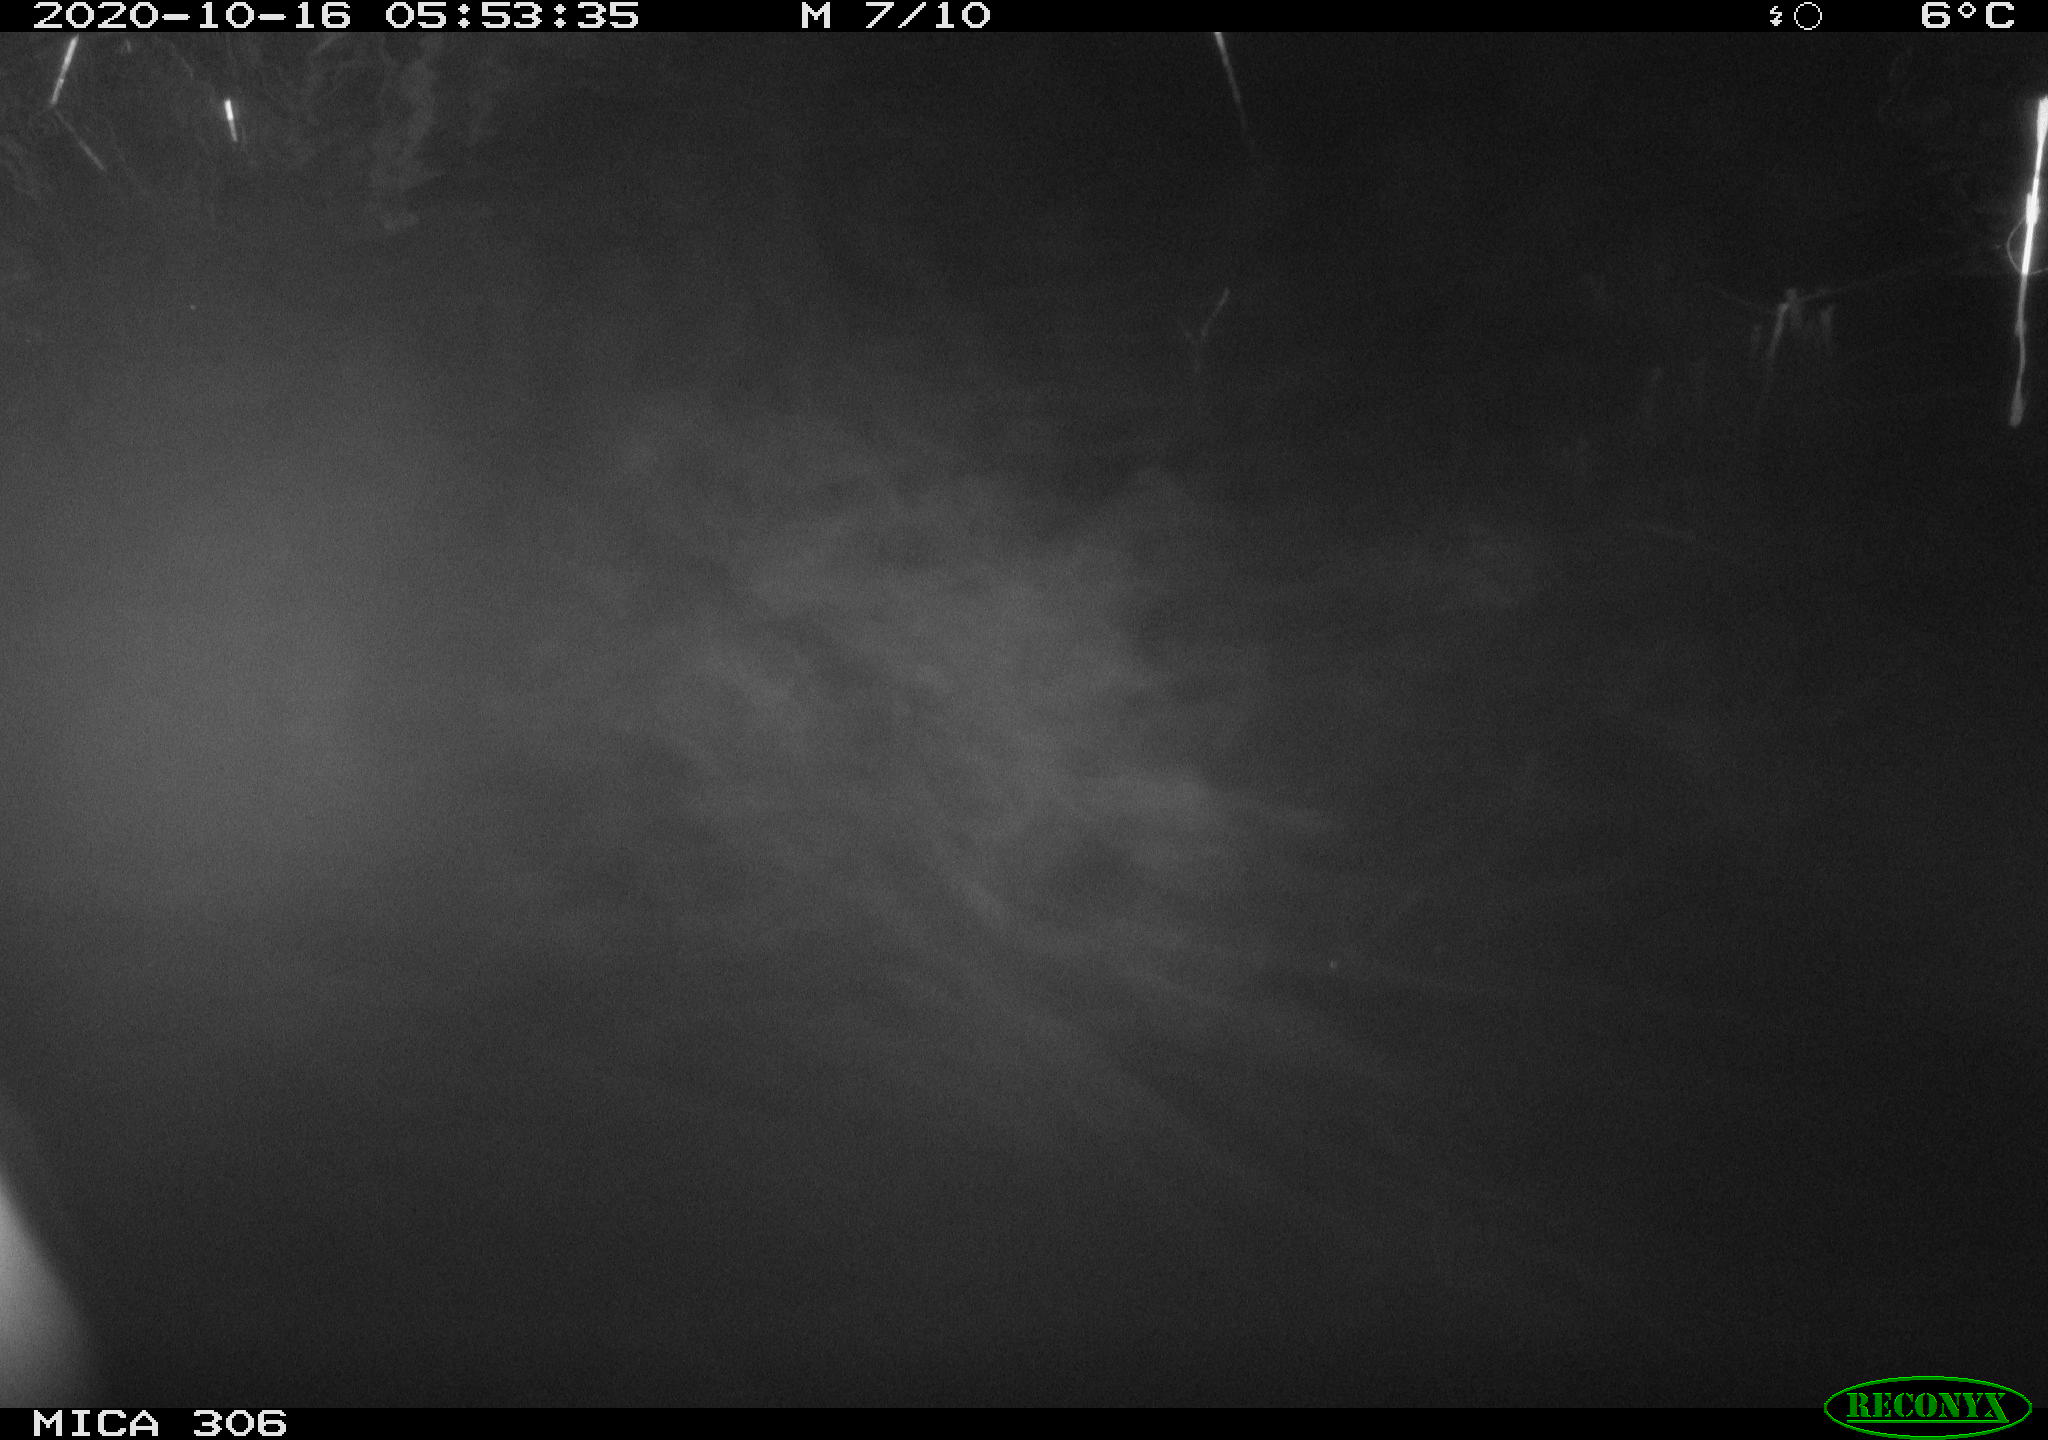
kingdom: Animalia
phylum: Chordata
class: Mammalia
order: Rodentia
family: Cricetidae
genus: Ondatra
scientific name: Ondatra zibethicus
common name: Muskrat
